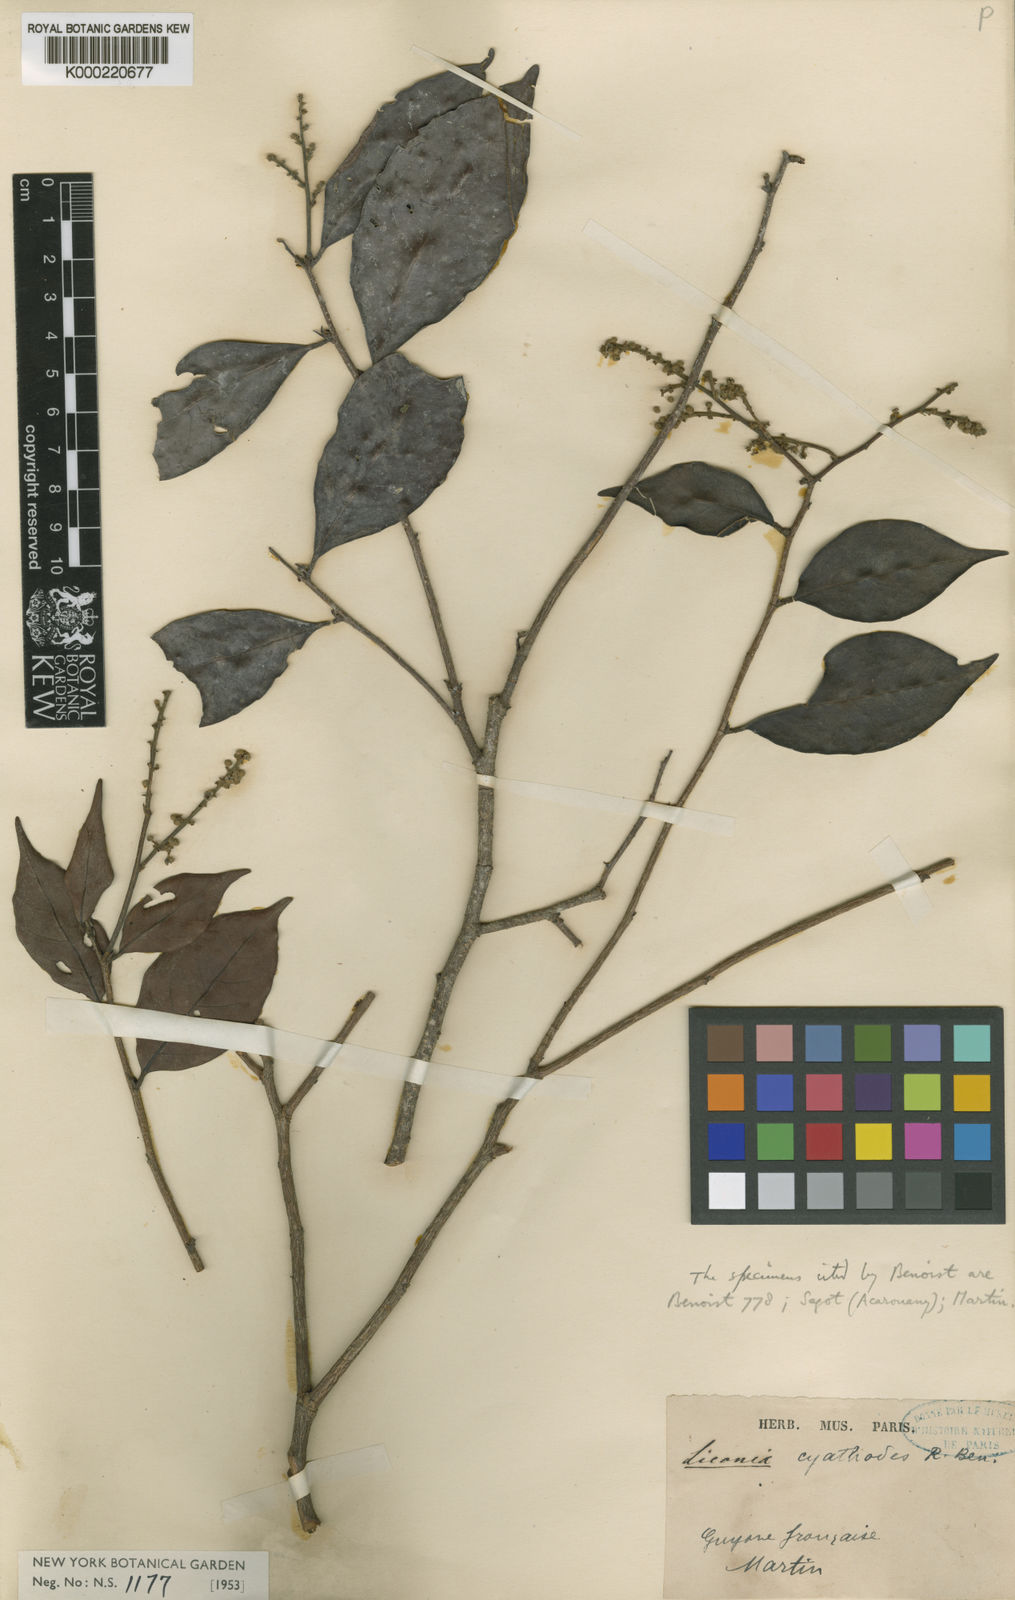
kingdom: Plantae
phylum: Tracheophyta
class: Magnoliopsida
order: Malpighiales
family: Chrysobalanaceae
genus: Licania
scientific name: Licania cyathodes
